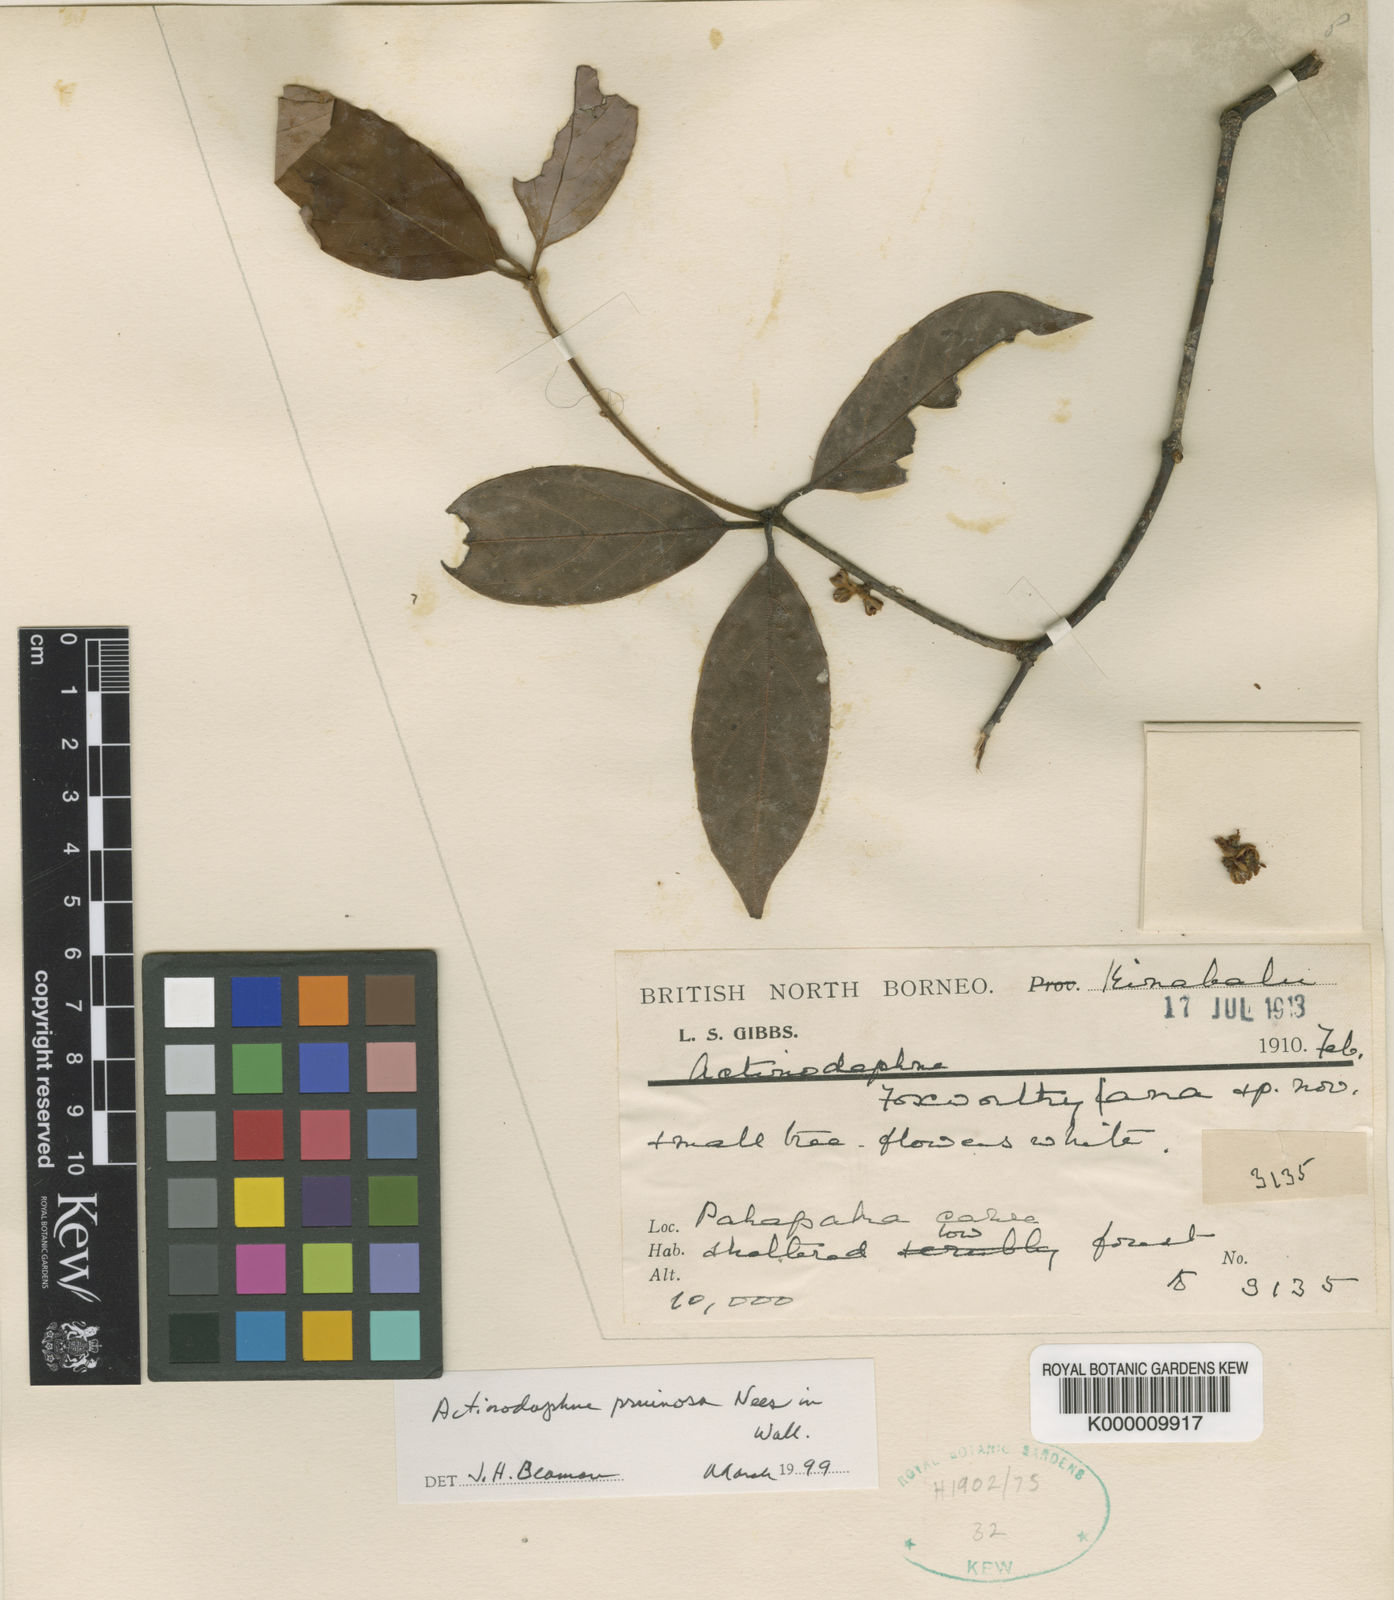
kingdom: Plantae
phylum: Tracheophyta
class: Magnoliopsida
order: Laurales
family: Lauraceae
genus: Actinodaphne
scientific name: Actinodaphne
